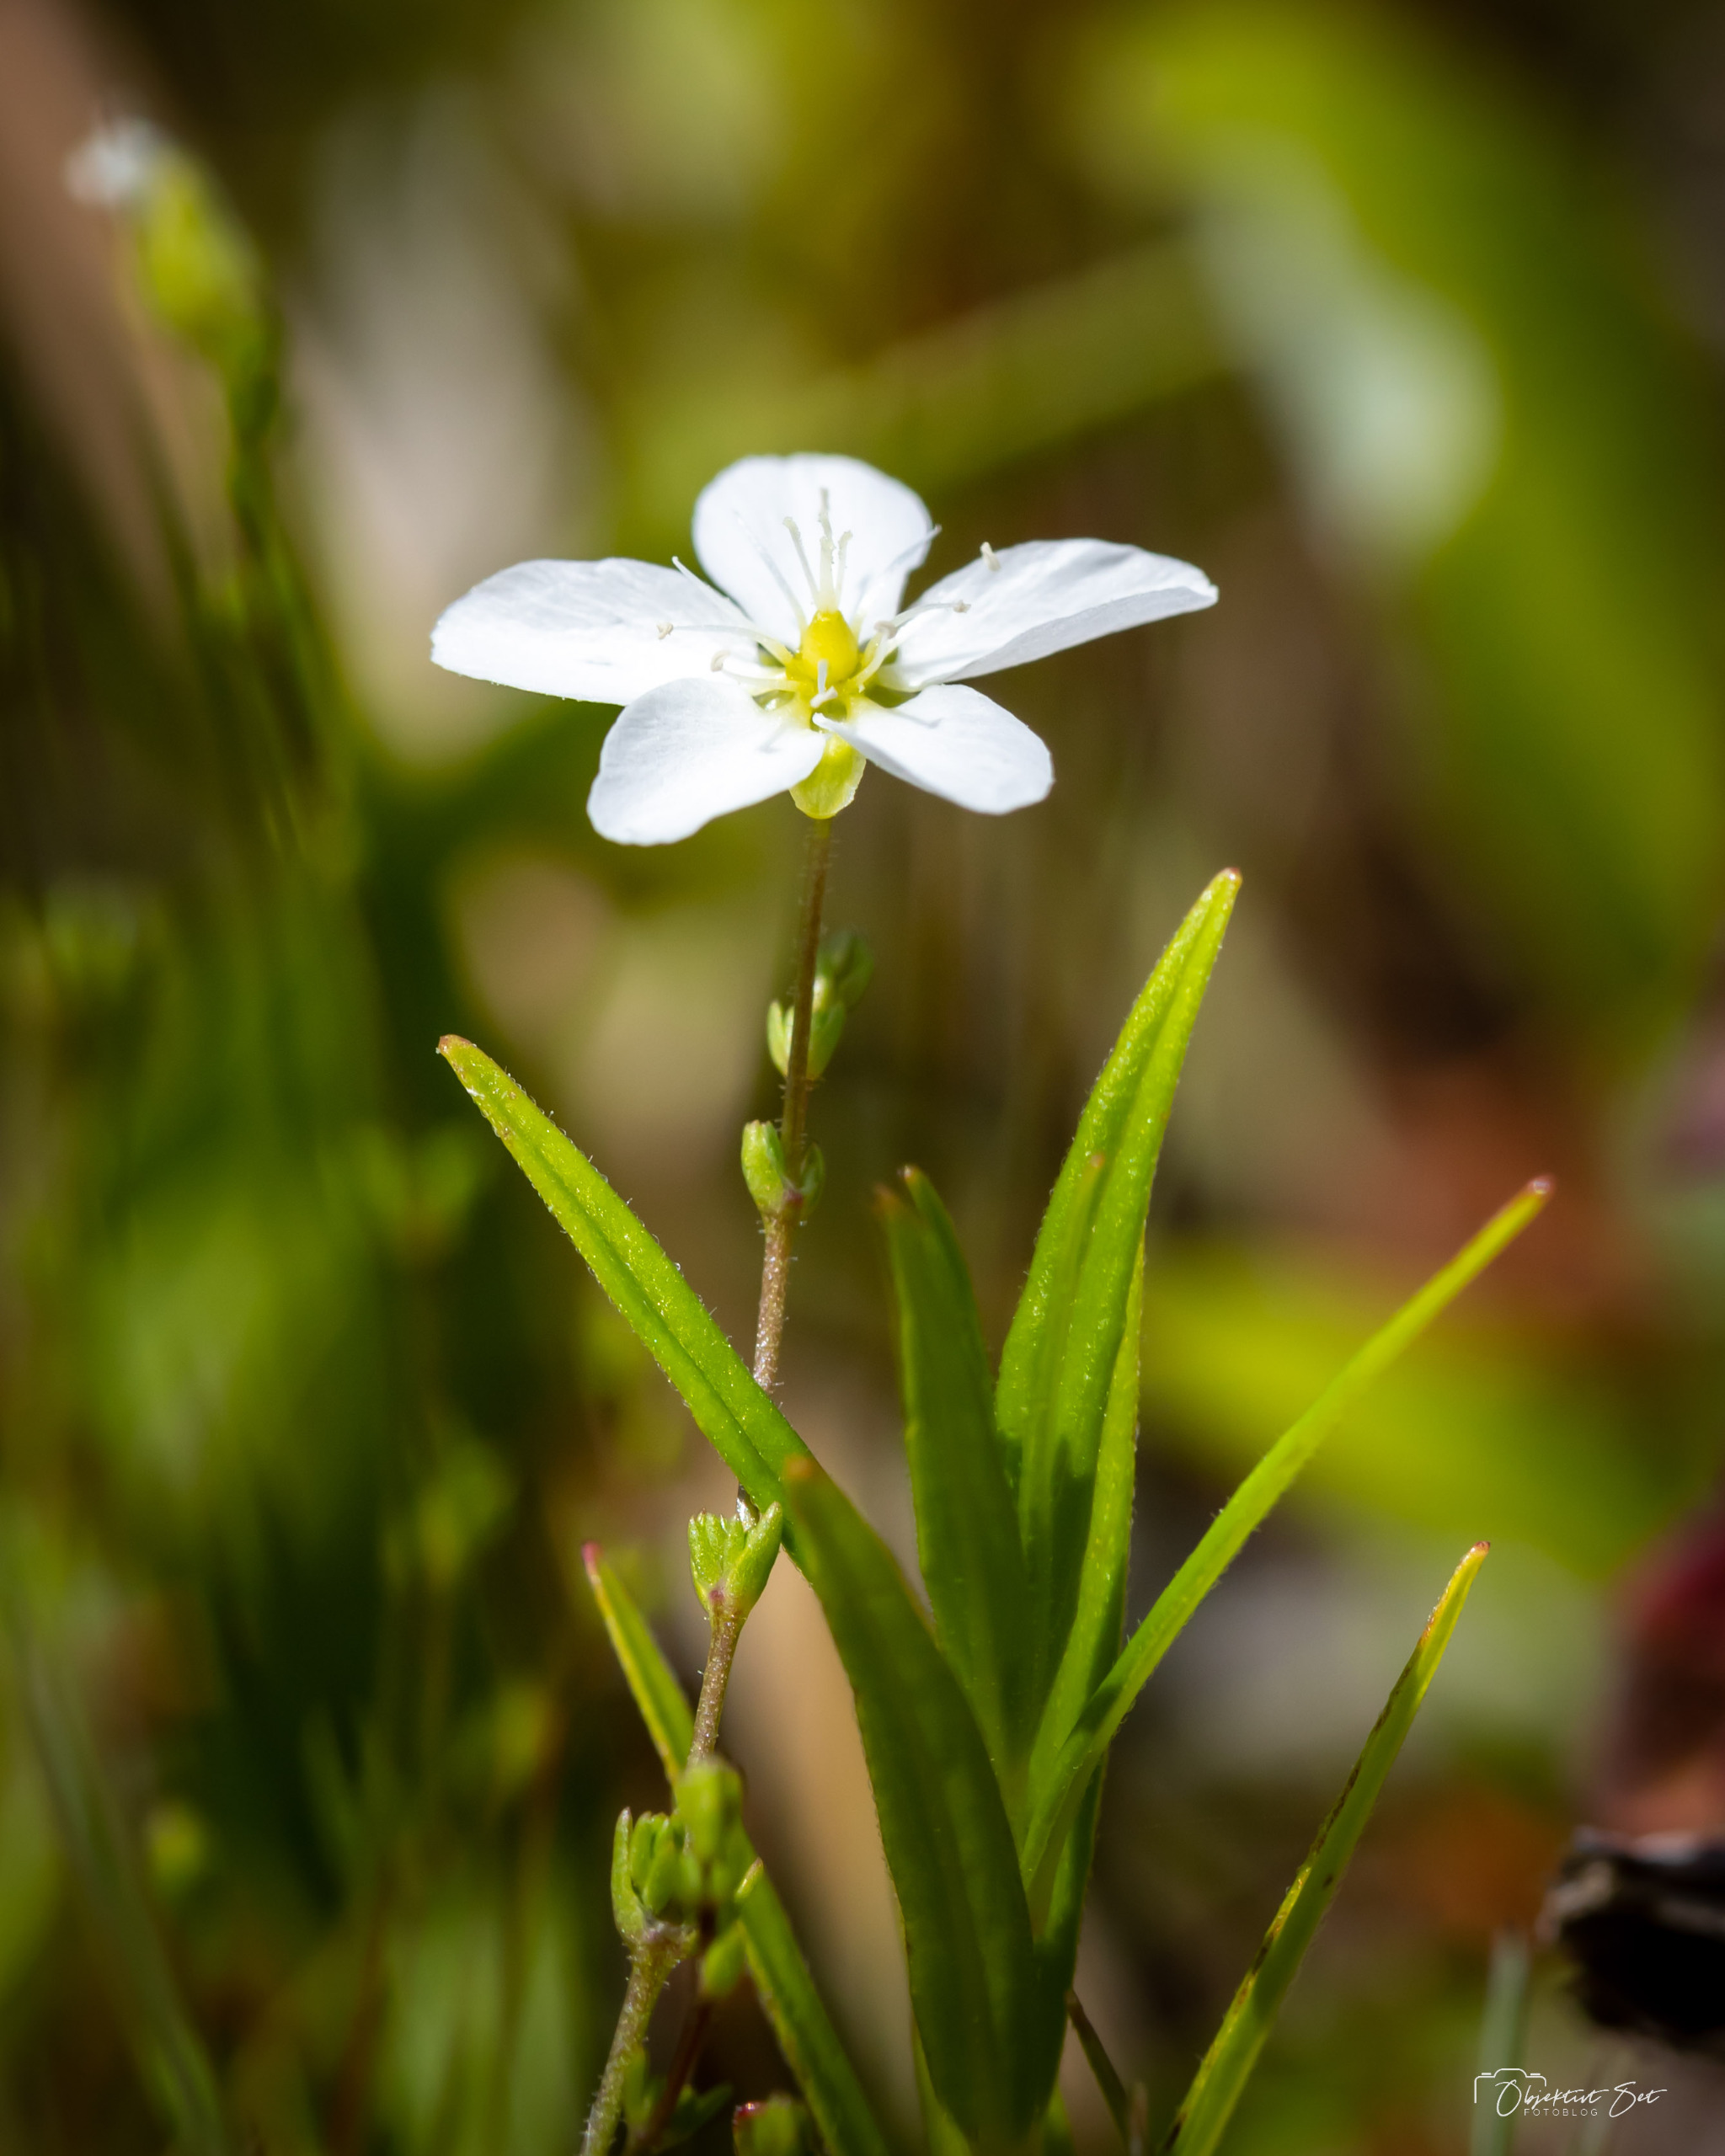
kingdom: Plantae
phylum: Tracheophyta
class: Magnoliopsida
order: Caryophyllales
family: Caryophyllaceae
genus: Sagina
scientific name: Sagina nodosa
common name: Knude-firling
